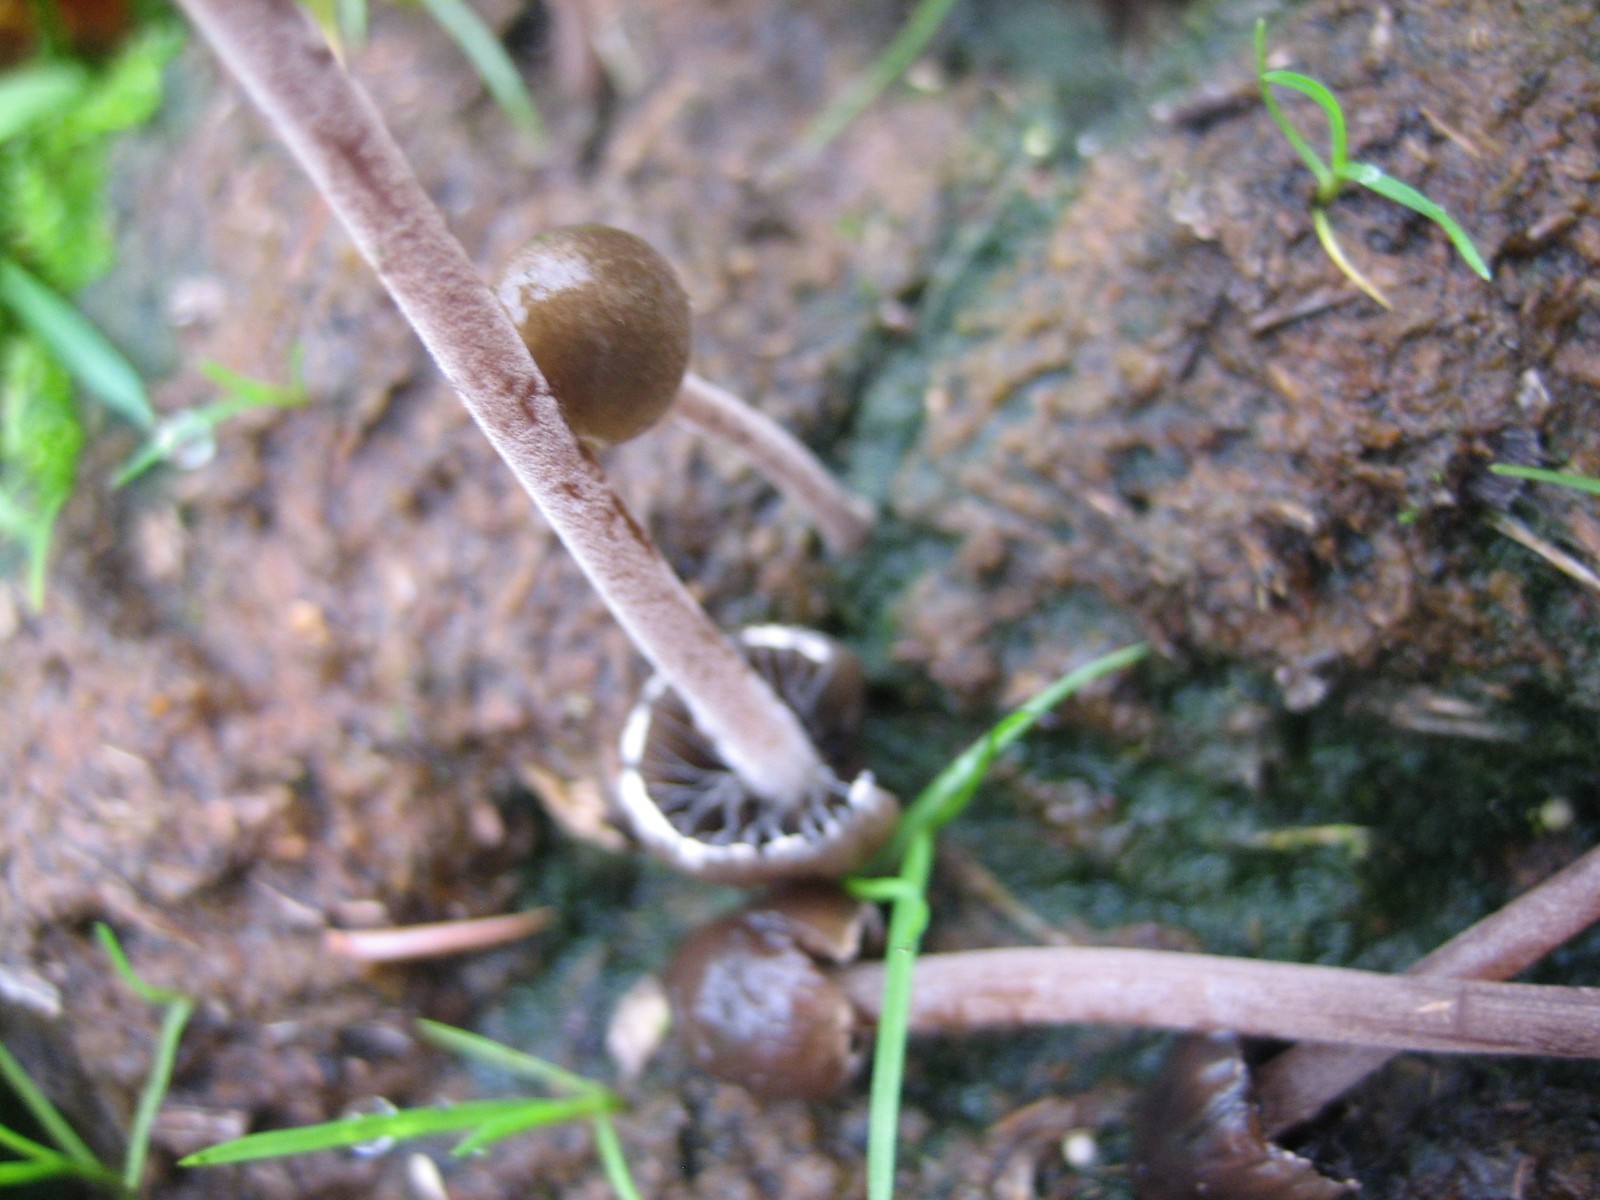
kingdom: Fungi
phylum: Basidiomycota
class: Agaricomycetes
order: Agaricales
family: Bolbitiaceae
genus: Panaeolus
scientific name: Panaeolus
